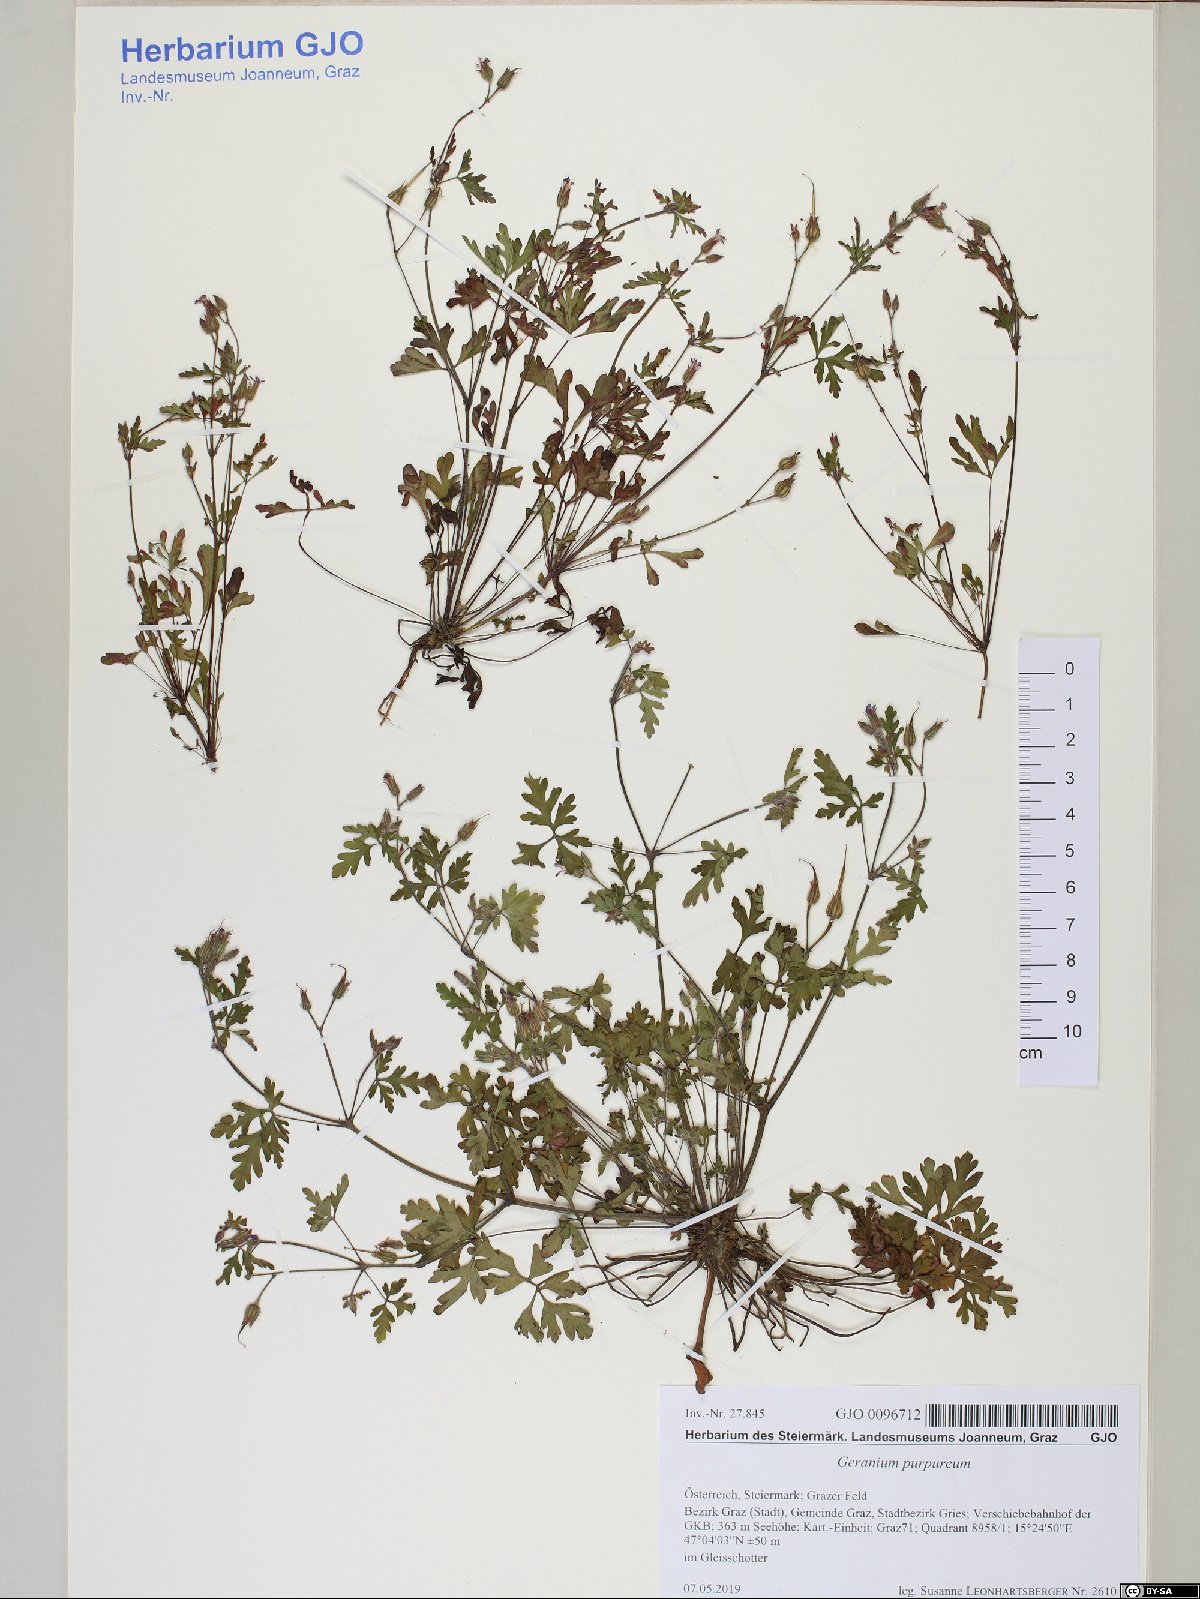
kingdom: Plantae
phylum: Tracheophyta
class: Magnoliopsida
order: Geraniales
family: Geraniaceae
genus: Geranium
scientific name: Geranium purpureum
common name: Little-robin
